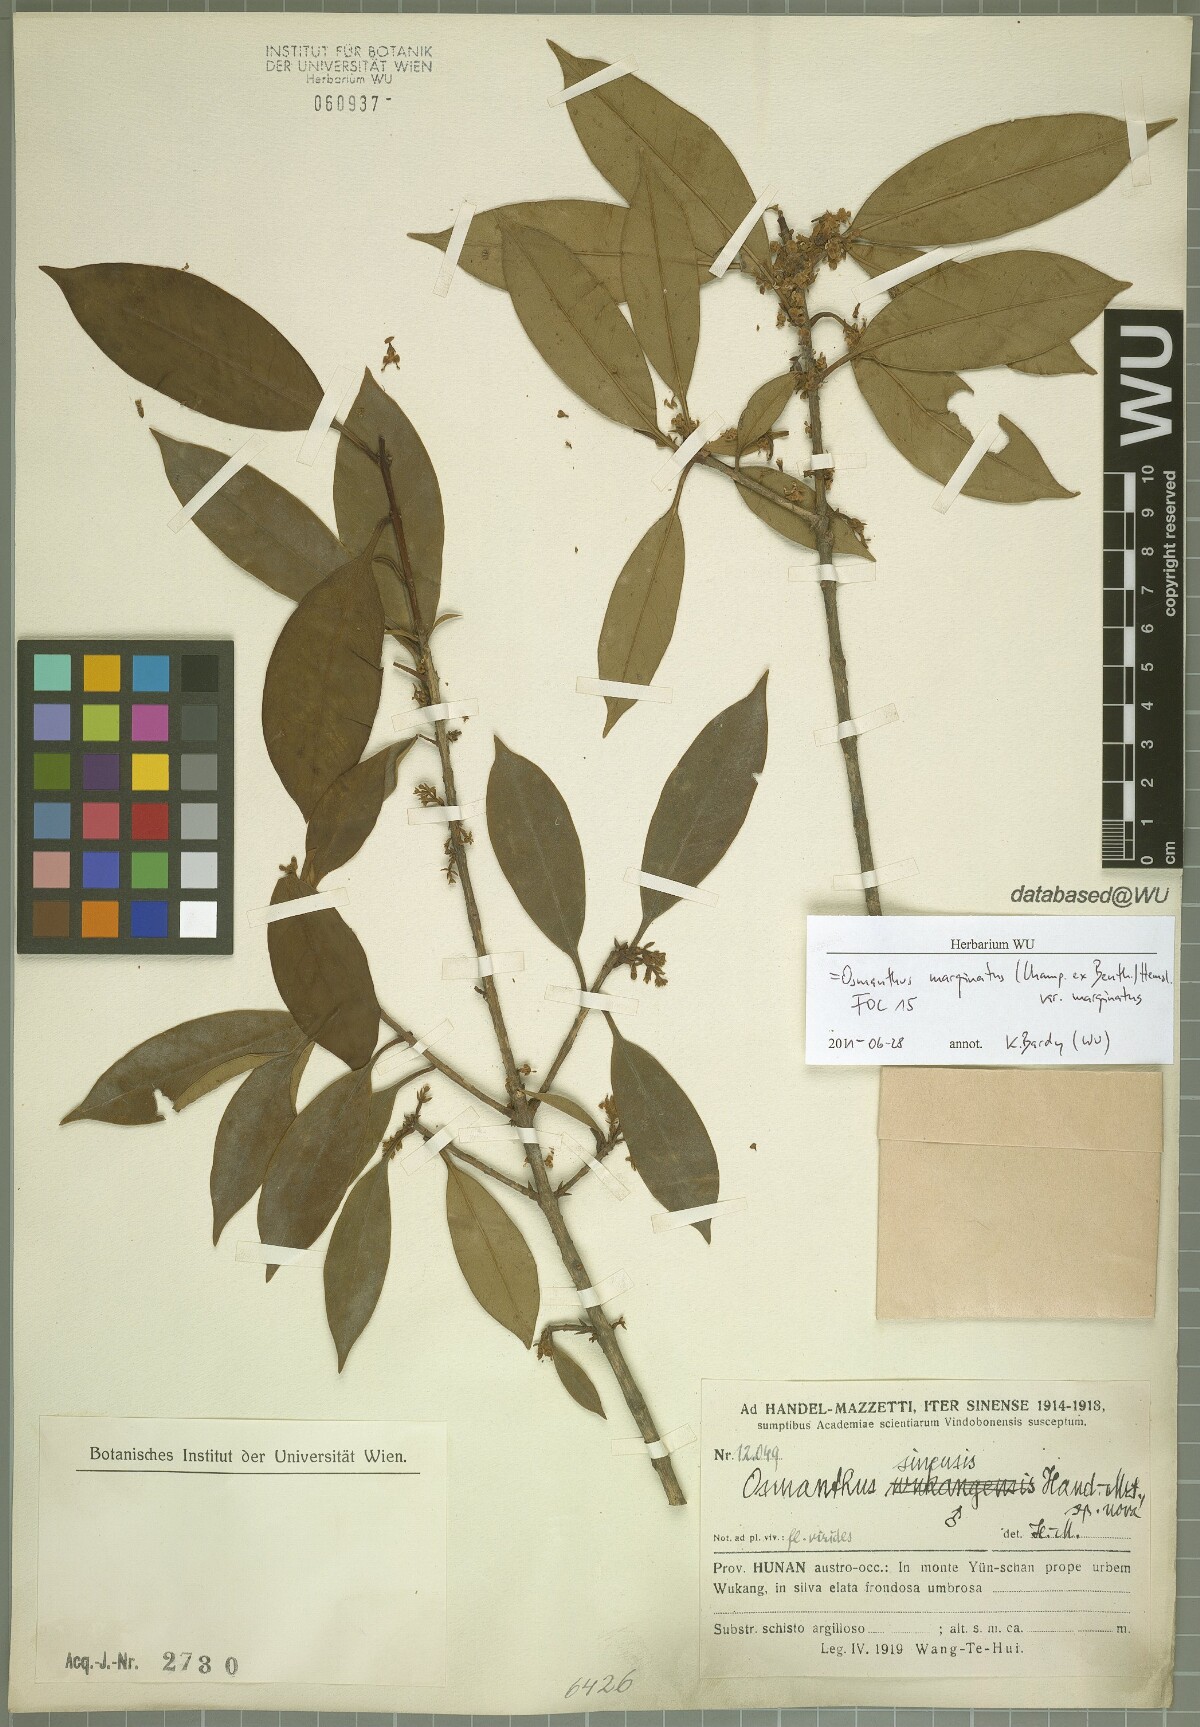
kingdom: Plantae
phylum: Tracheophyta
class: Magnoliopsida
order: Lamiales
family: Oleaceae
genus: Chengiodendron
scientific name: Chengiodendron marginatum
